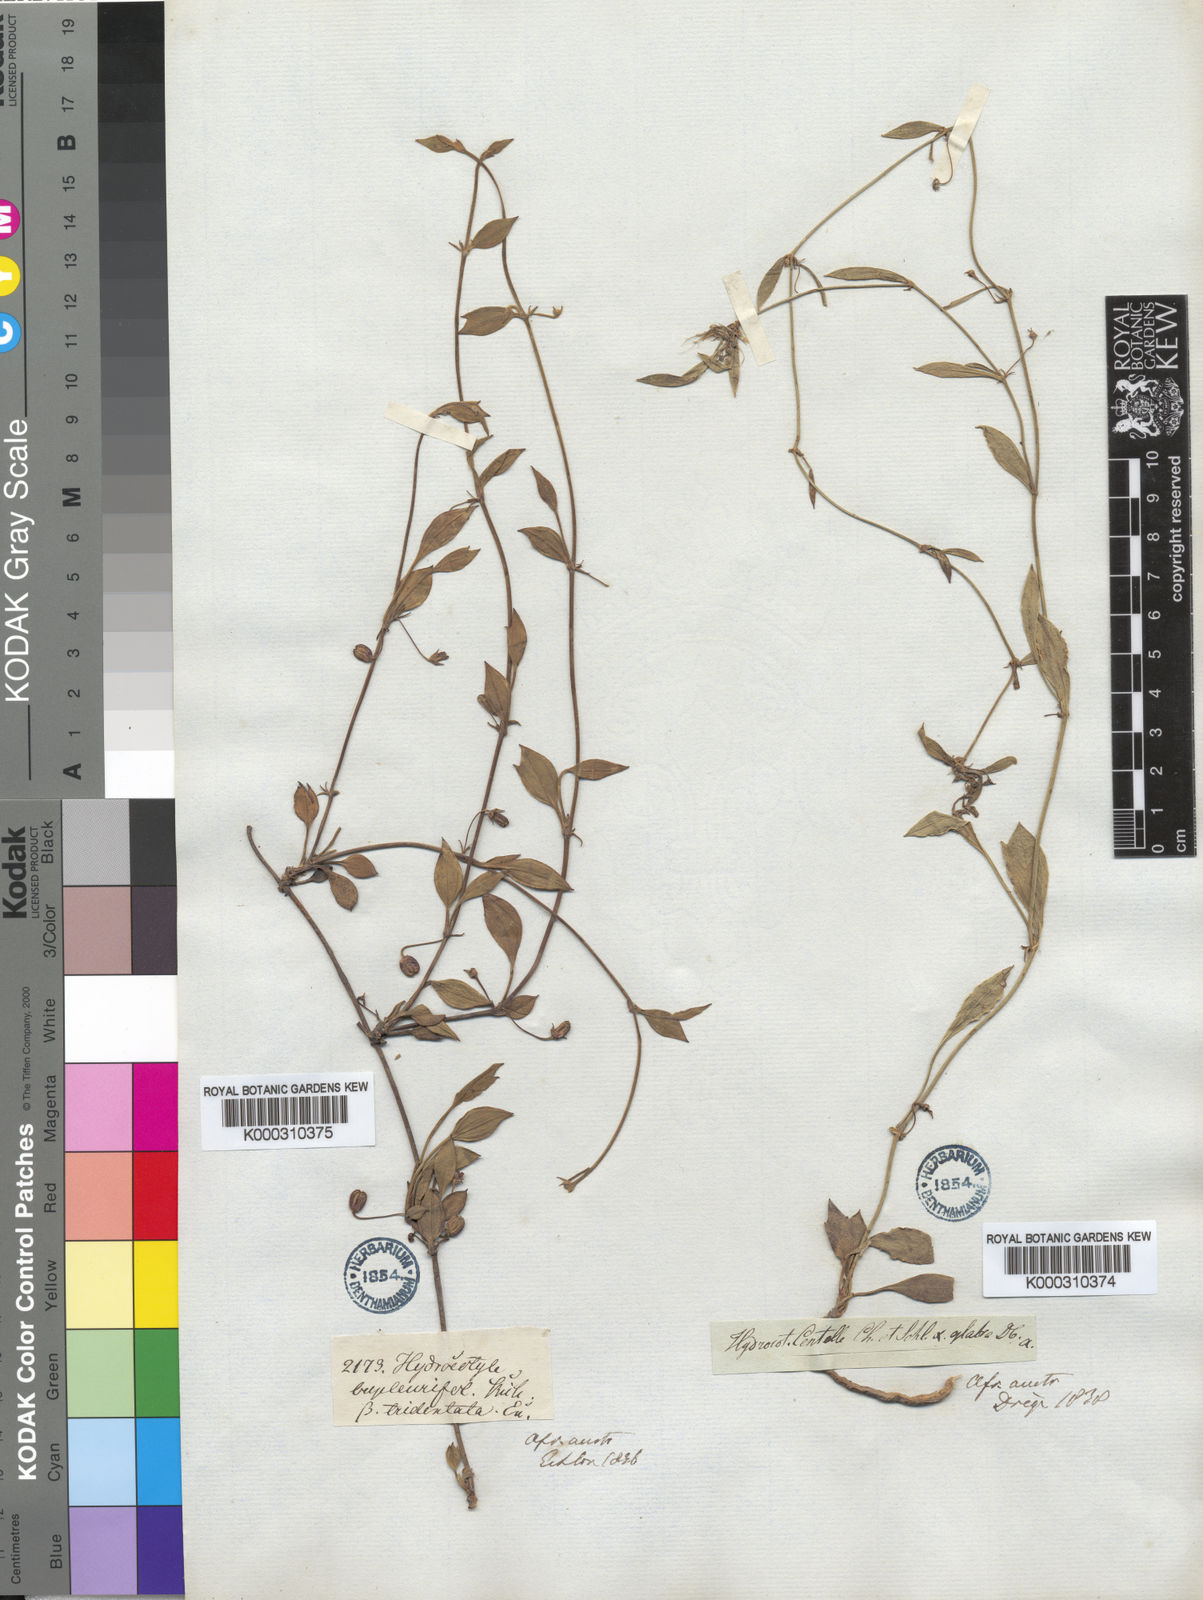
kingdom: Plantae
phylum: Tracheophyta
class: Magnoliopsida
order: Apiales
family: Apiaceae
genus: Centella
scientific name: Centella glabrata
